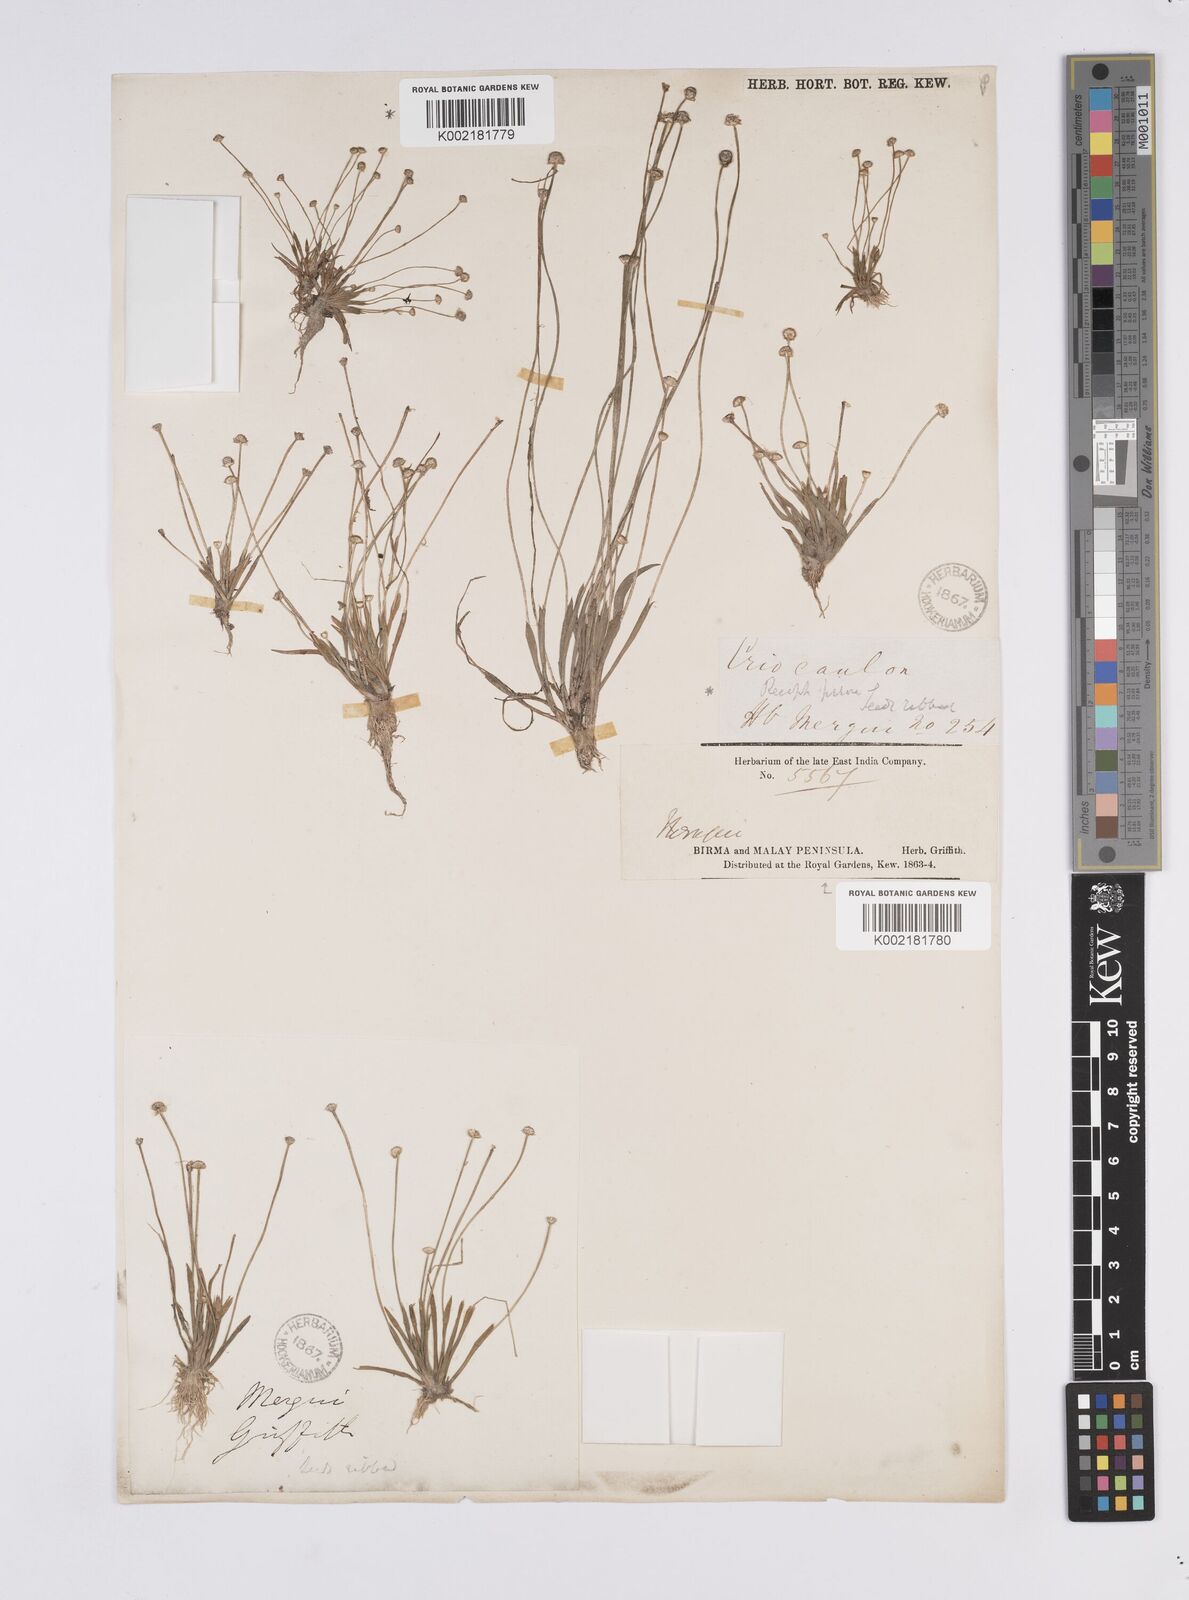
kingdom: Plantae
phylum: Tracheophyta
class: Liliopsida
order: Poales
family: Eriocaulaceae
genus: Eriocaulon
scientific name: Eriocaulon truncatum
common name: Short pipe-wort
